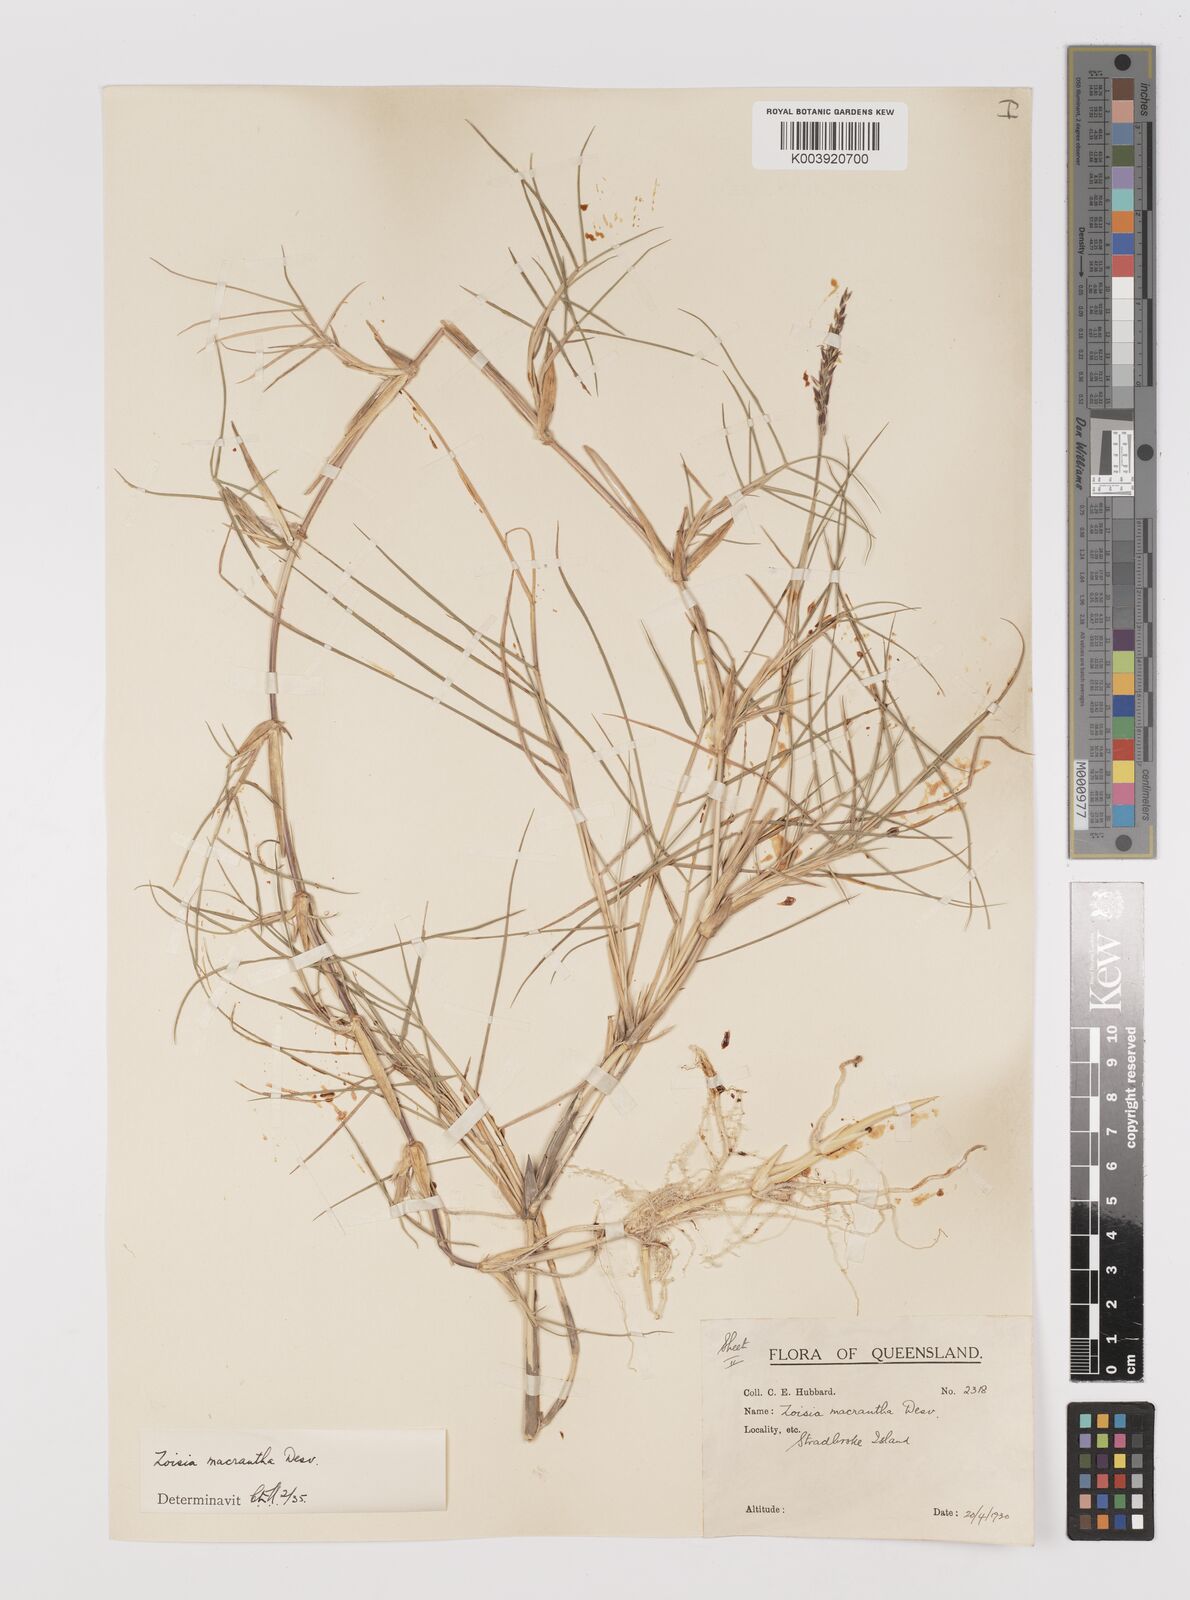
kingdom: Plantae
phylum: Tracheophyta
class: Liliopsida
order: Poales
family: Poaceae
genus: Zoysia
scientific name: Zoysia macrantha
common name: Korean lawn grass
